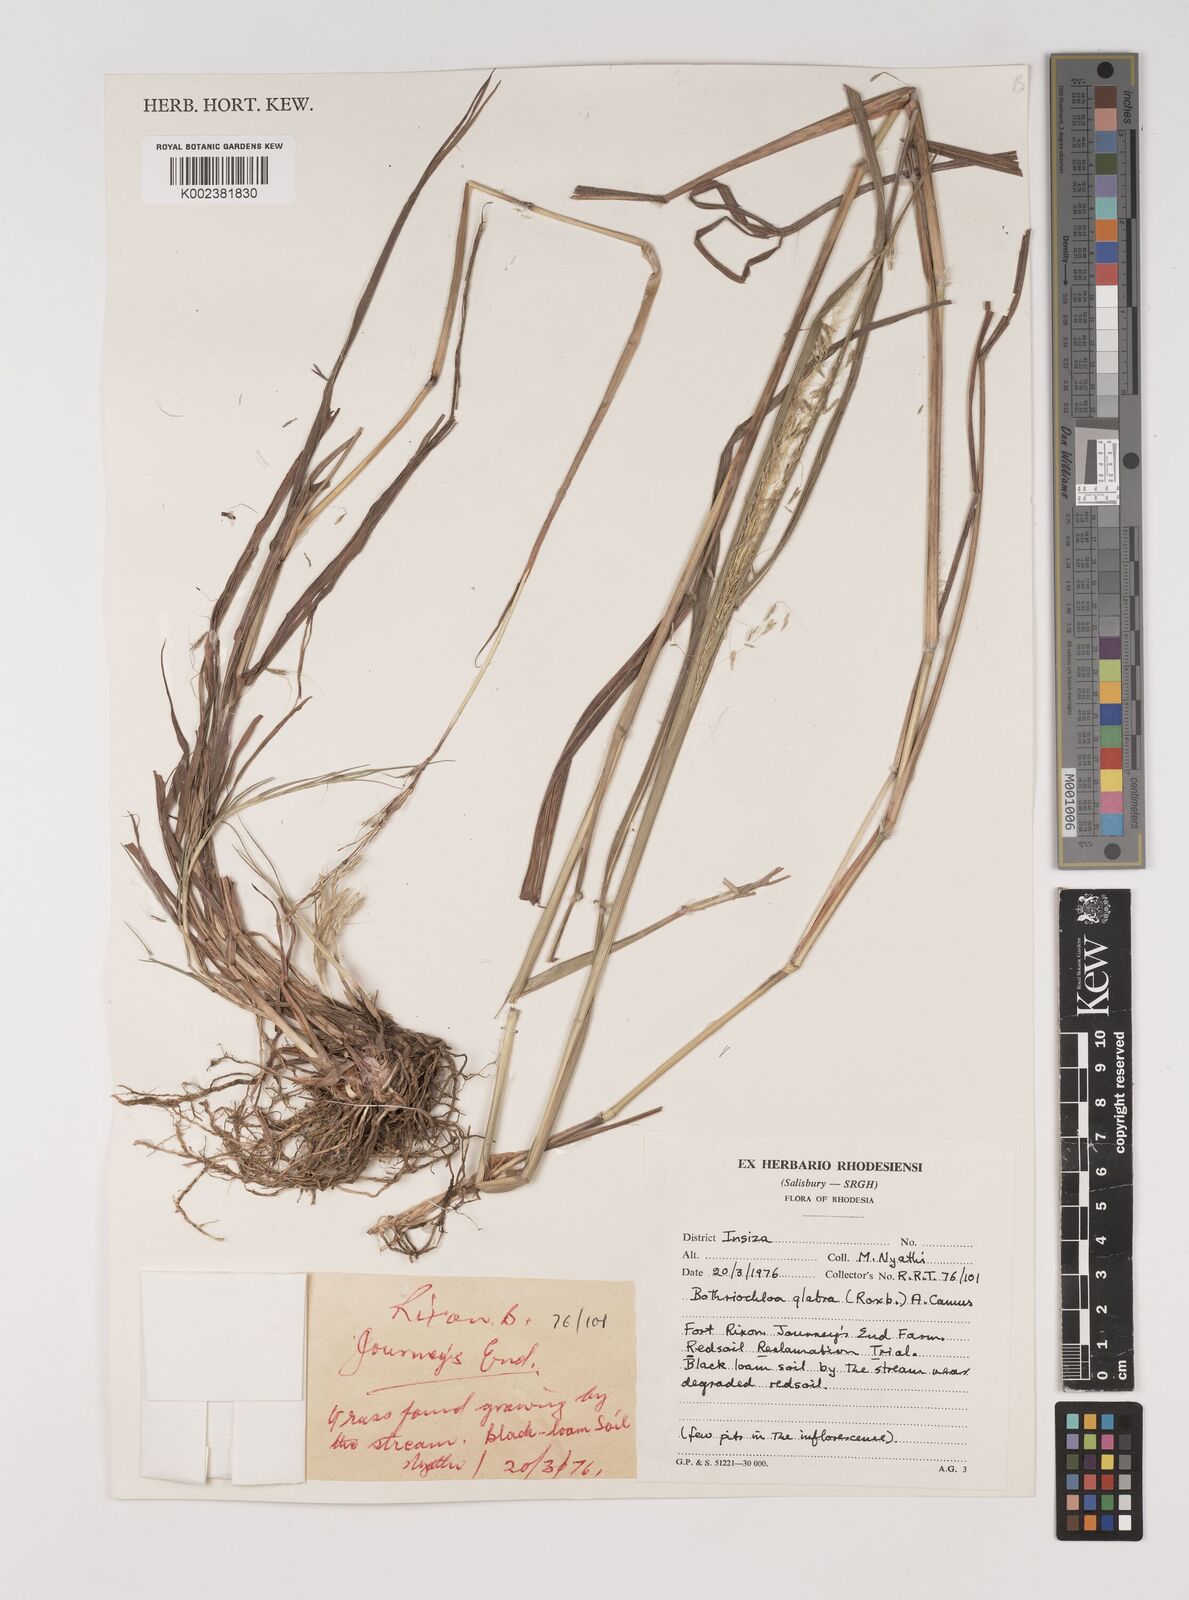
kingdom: Plantae
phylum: Tracheophyta
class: Liliopsida
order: Poales
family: Poaceae
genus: Bothriochloa
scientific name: Bothriochloa bladhii
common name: Caucasian bluestem
